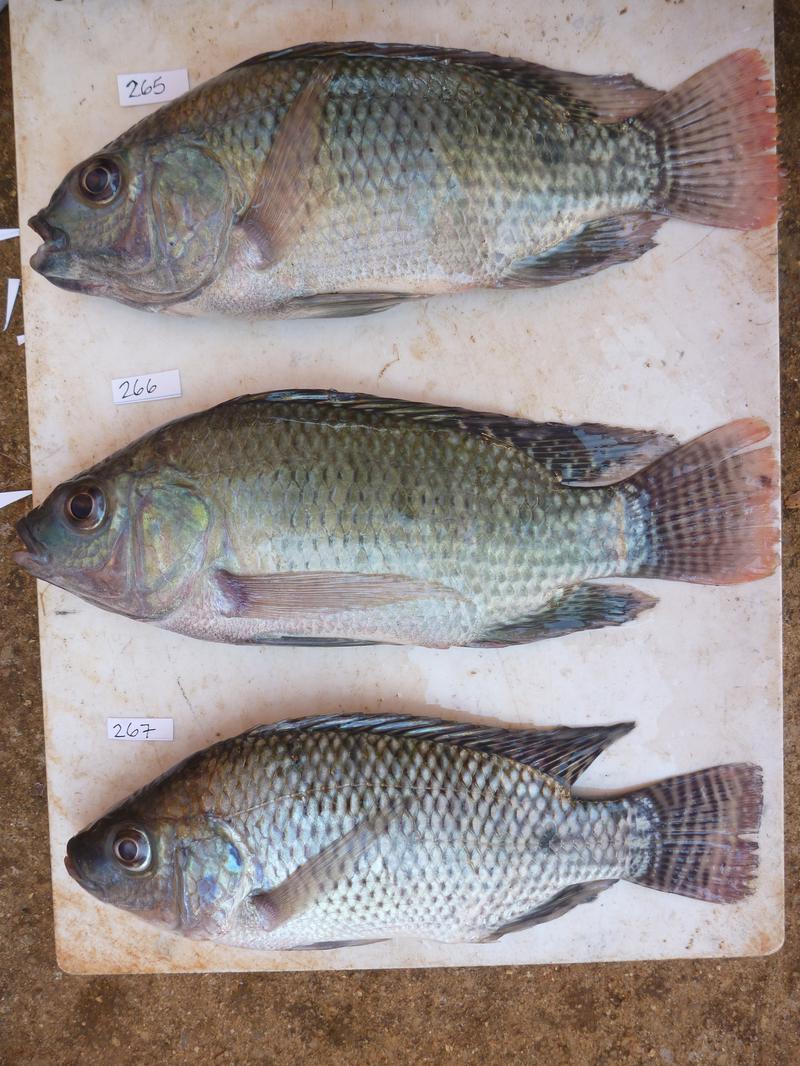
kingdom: Animalia
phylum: Chordata
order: Perciformes
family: Cichlidae
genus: Oreochromis
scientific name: Oreochromis niloticus
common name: Nile tilapia
